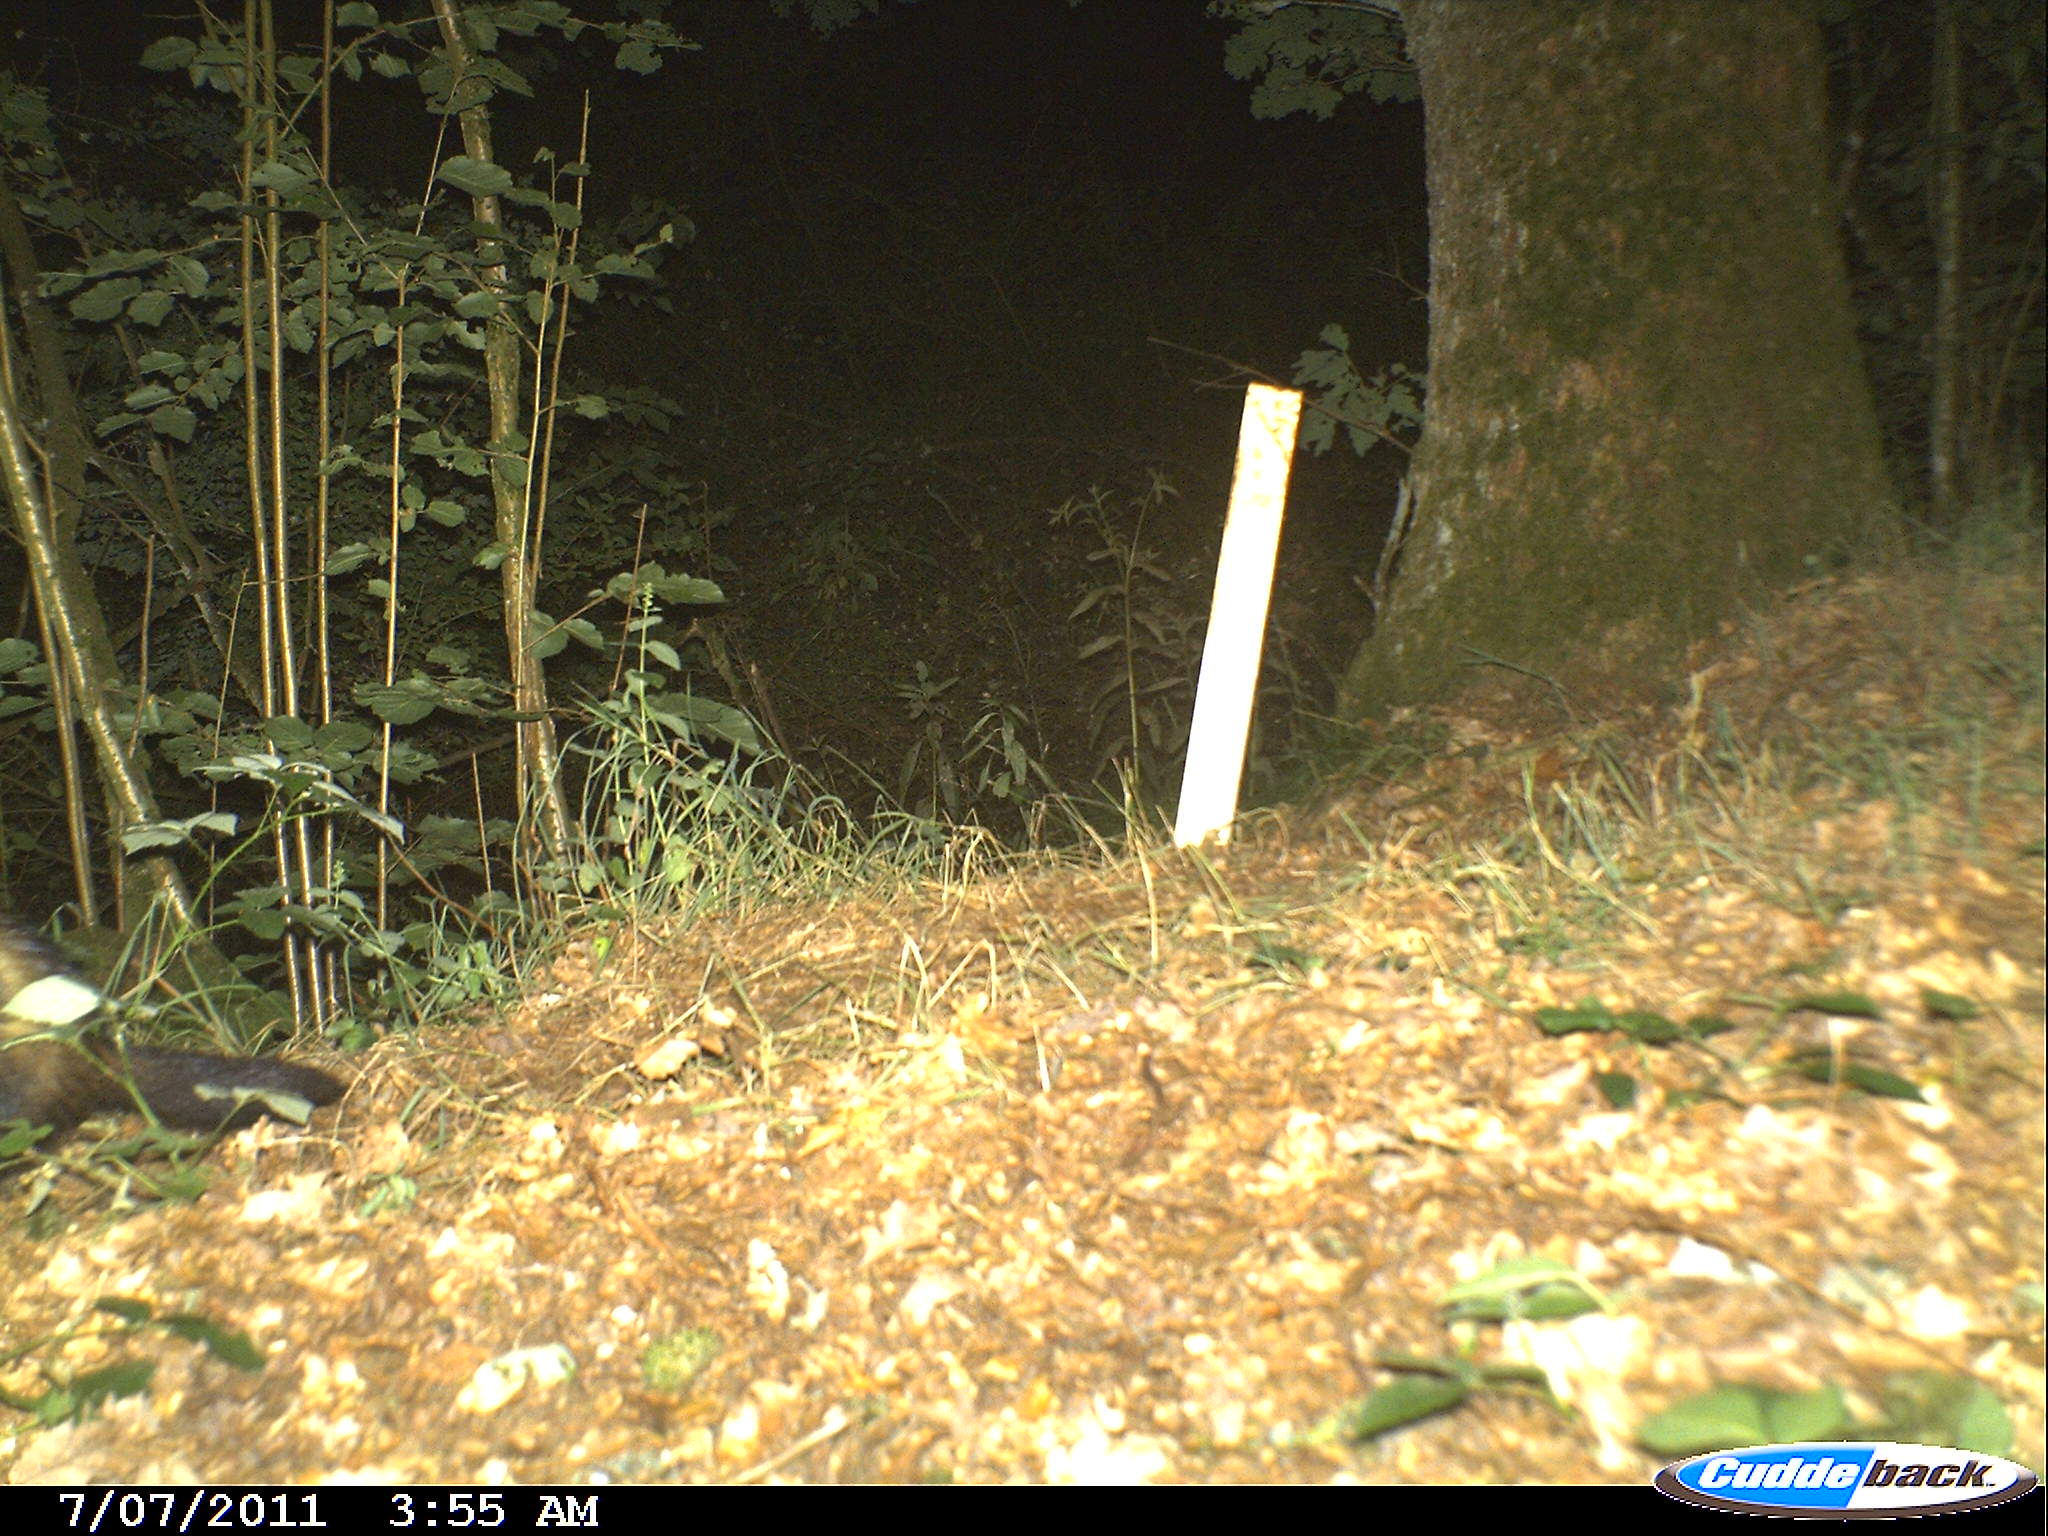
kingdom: Animalia
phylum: Chordata
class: Mammalia
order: Carnivora
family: Mustelidae
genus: Martes
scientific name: Martes
